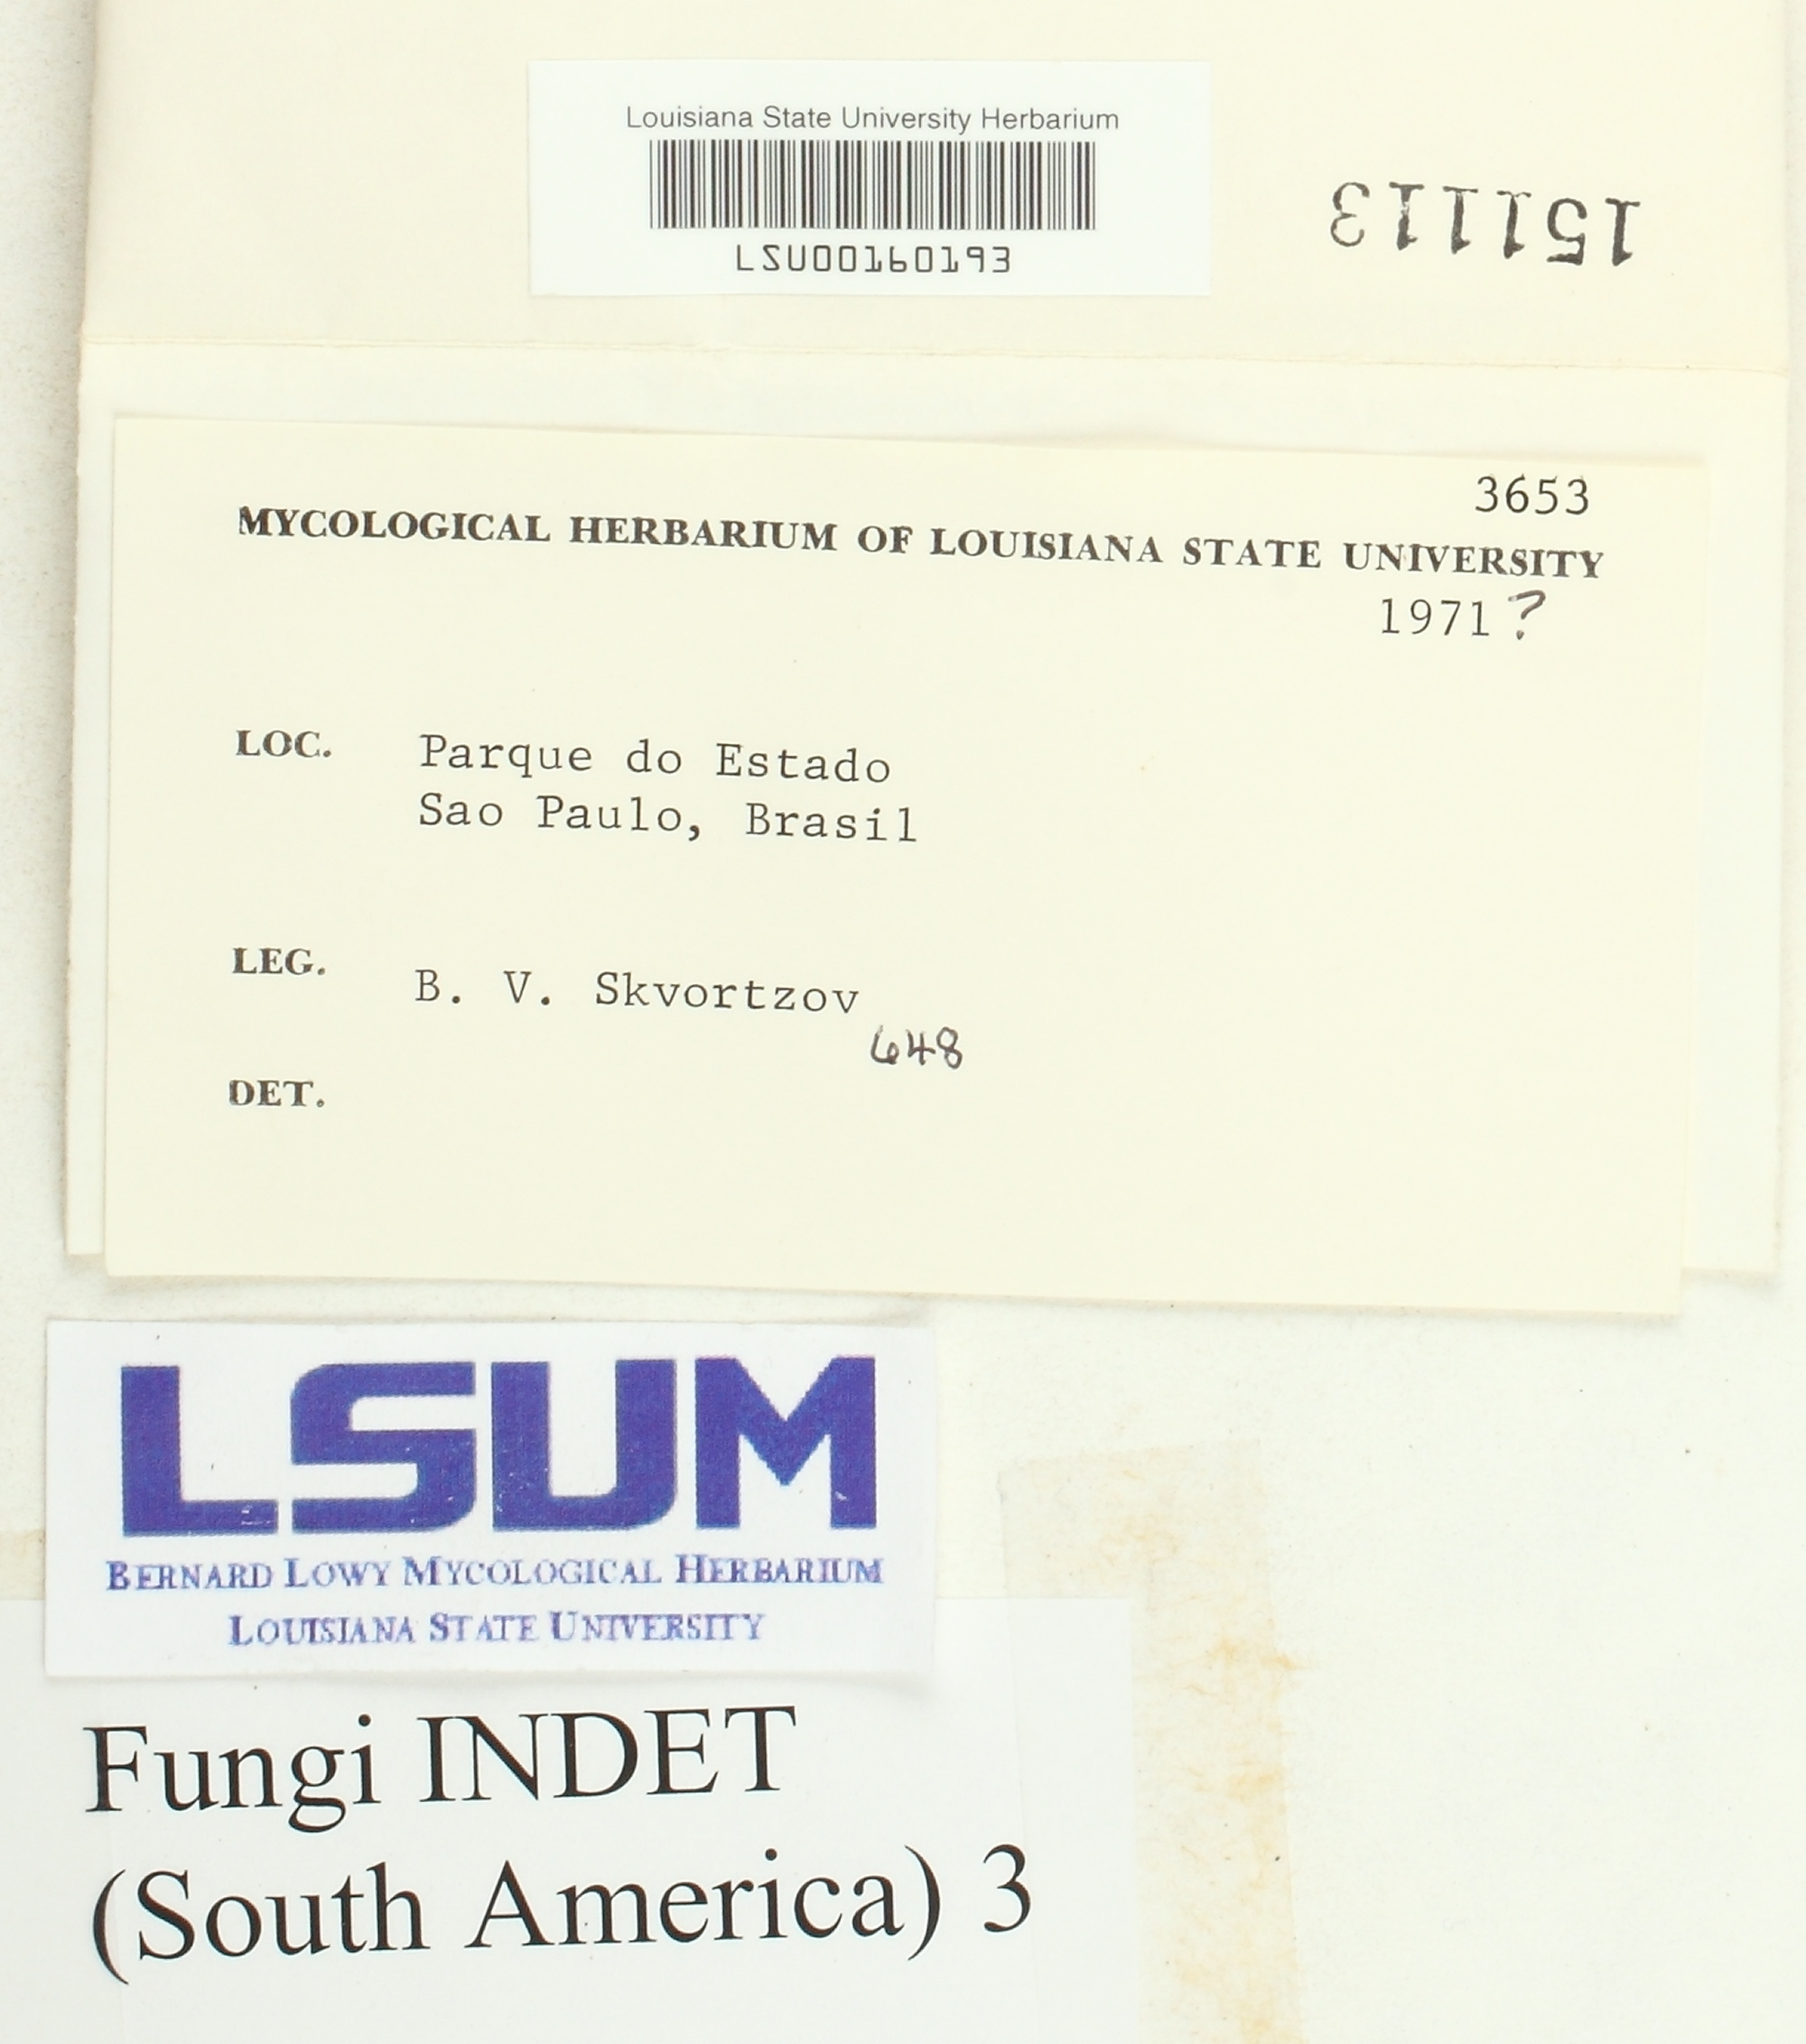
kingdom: Fungi
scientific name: Fungi
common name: Fungi
